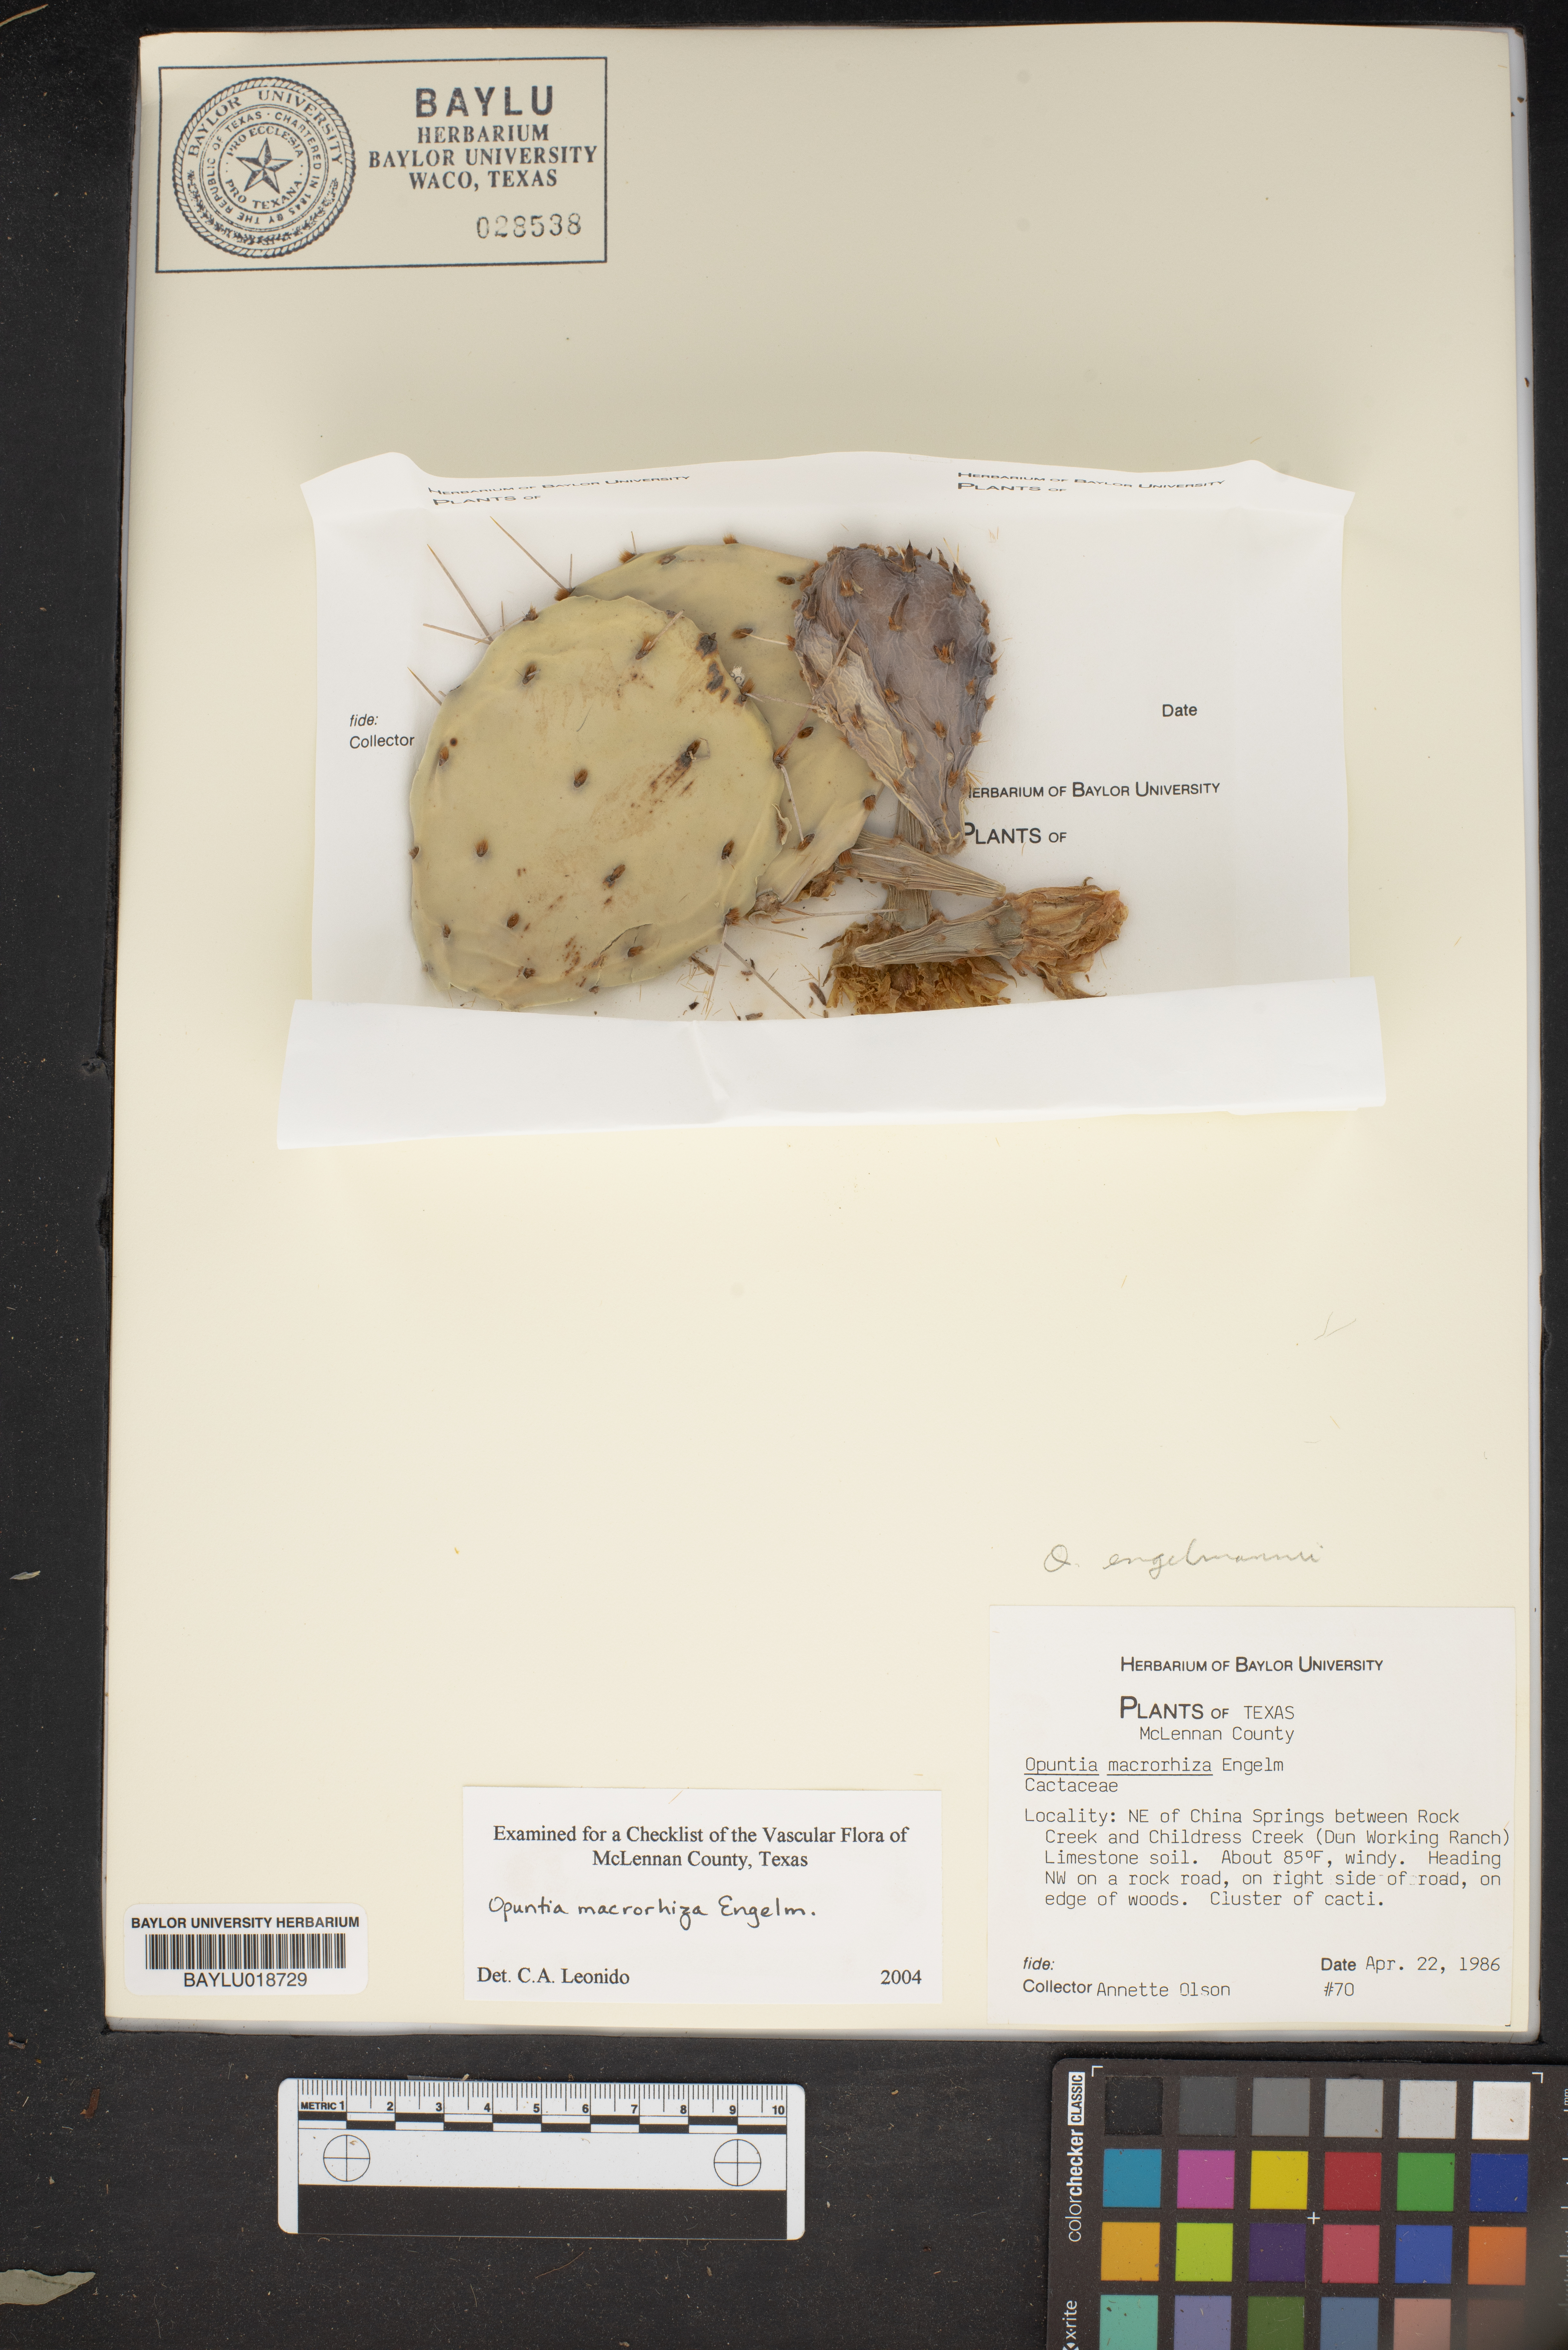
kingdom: Plantae
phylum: Tracheophyta
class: Magnoliopsida
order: Caryophyllales
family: Cactaceae
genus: Opuntia
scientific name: Opuntia macrorhiza
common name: Grassland pricklypear
